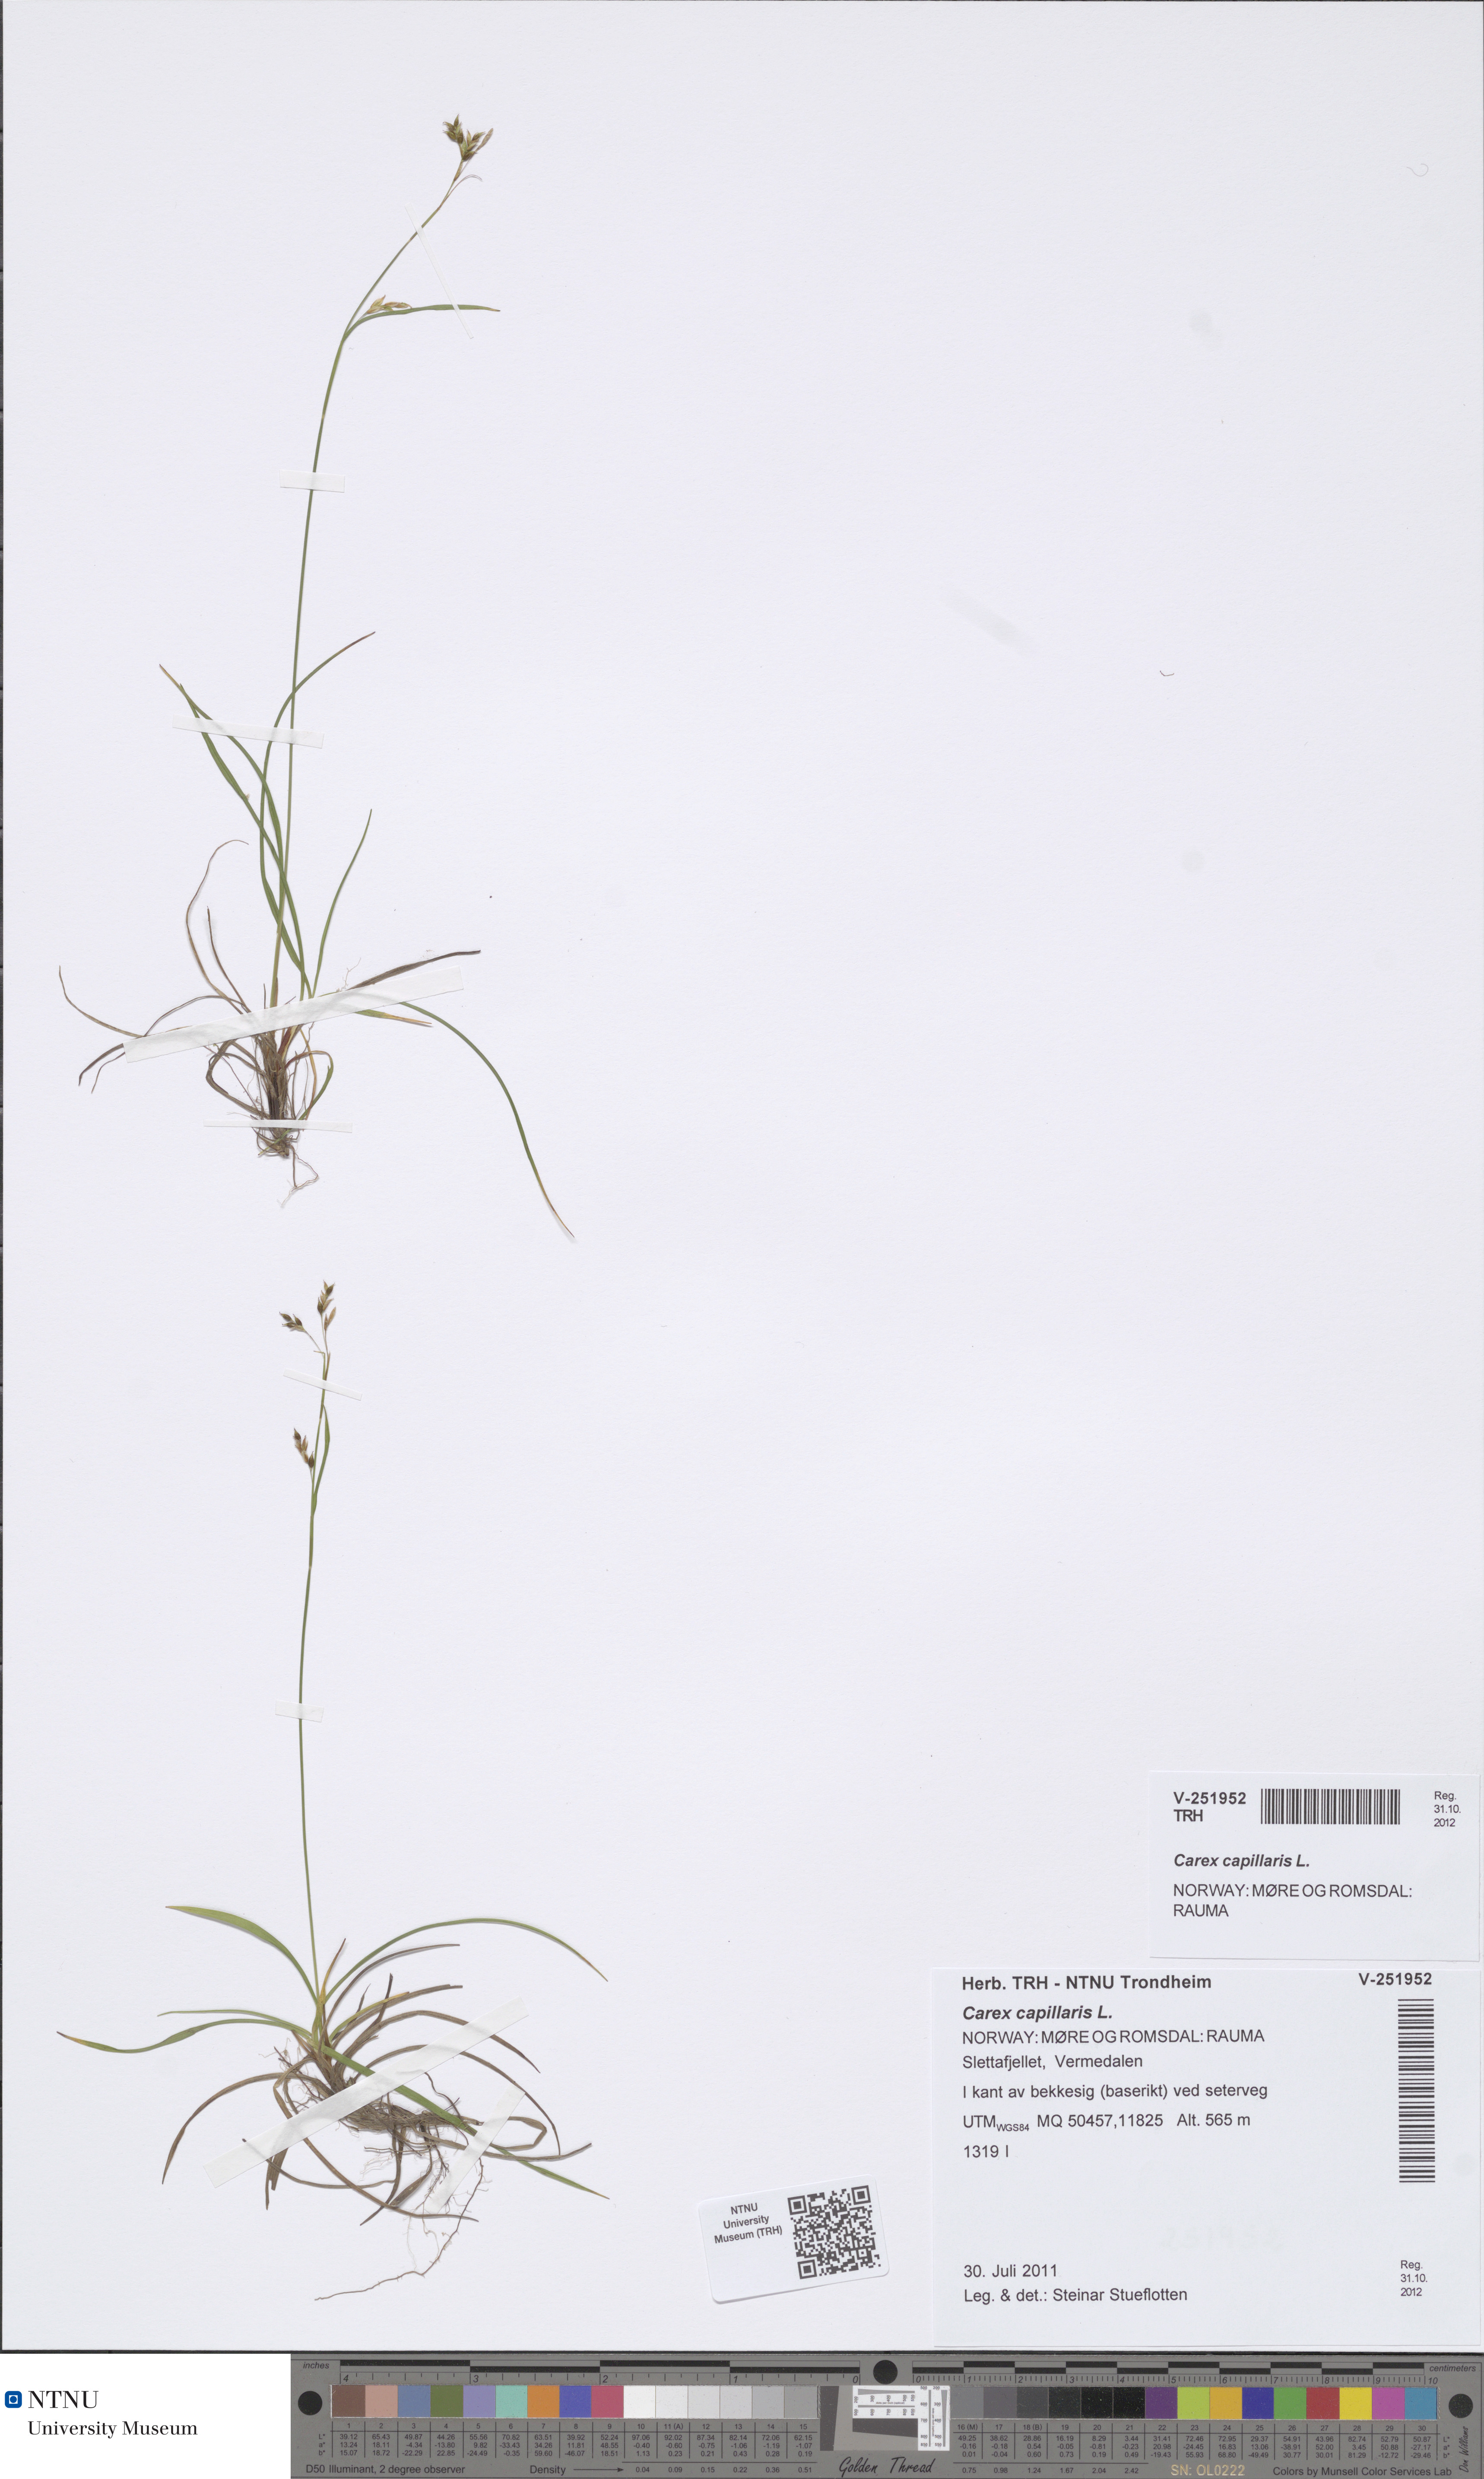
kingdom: Plantae
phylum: Tracheophyta
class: Liliopsida
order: Poales
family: Cyperaceae
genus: Carex
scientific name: Carex capillaris
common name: Hair sedge
